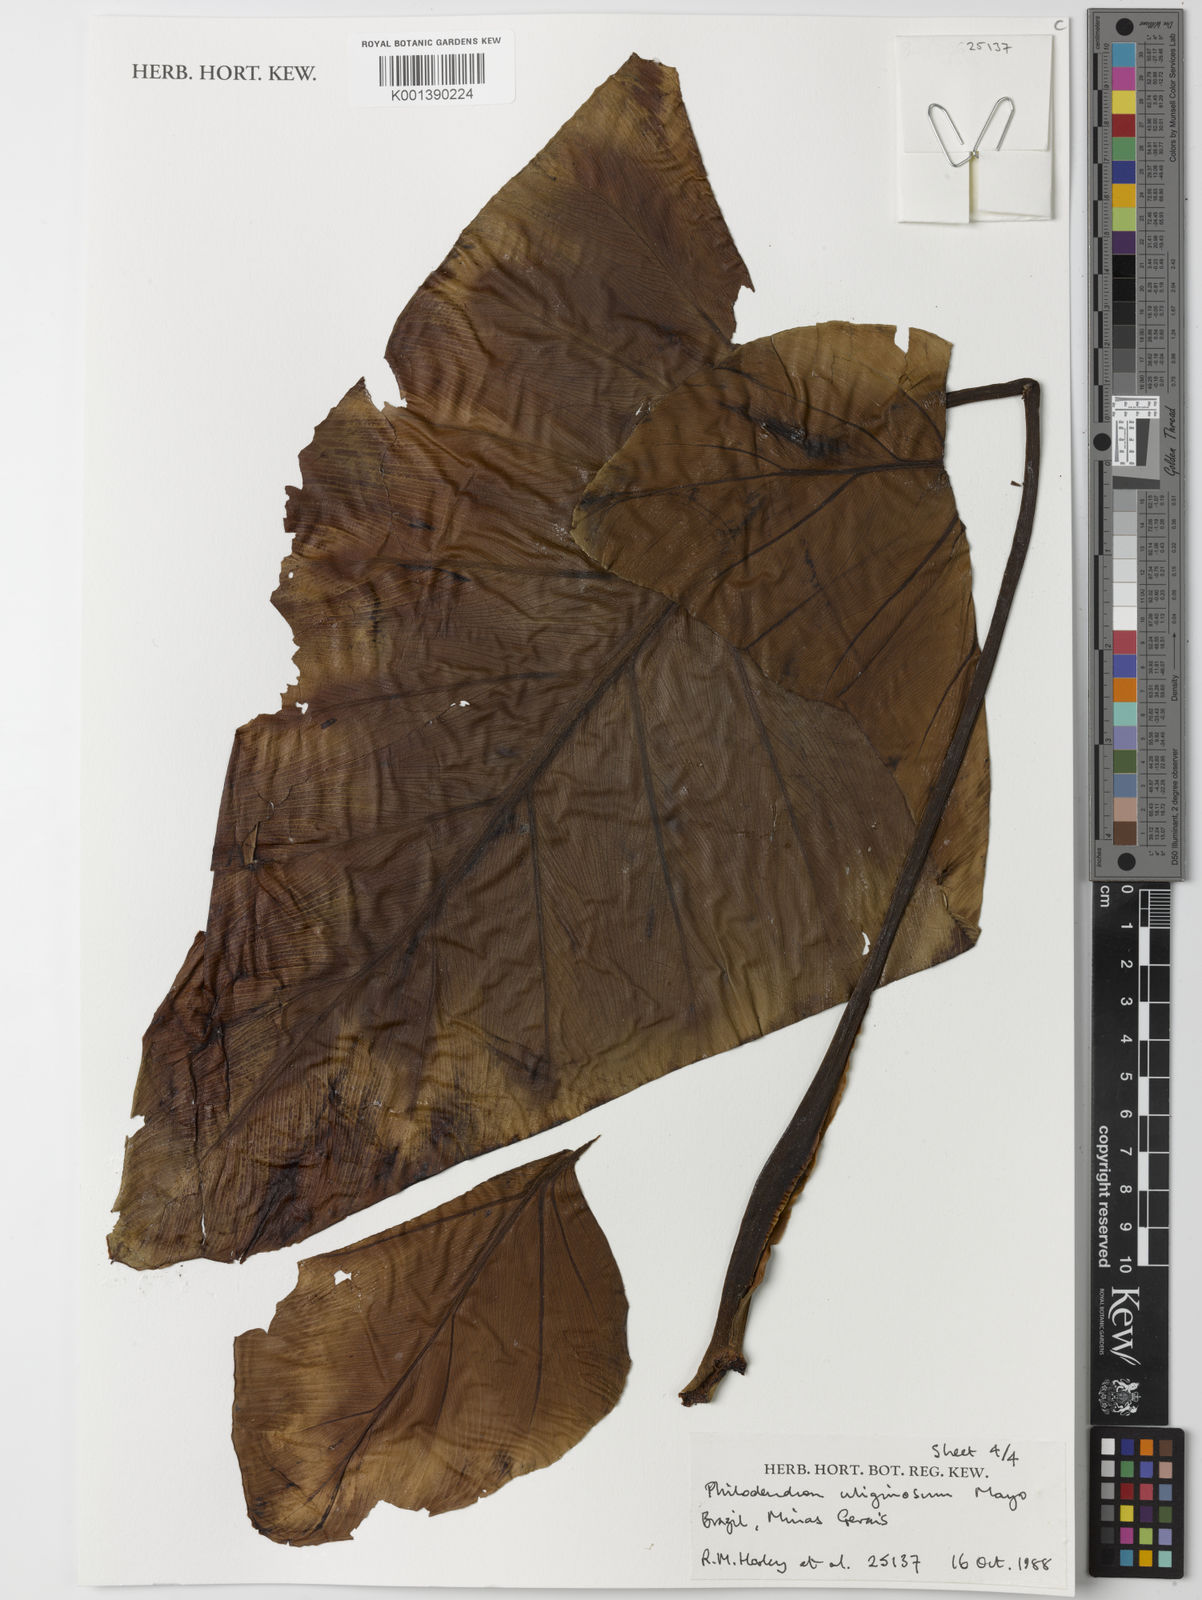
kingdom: Plantae
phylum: Tracheophyta
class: Liliopsida
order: Alismatales
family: Araceae
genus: Thaumatophyllum
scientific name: Thaumatophyllum uliginosum
